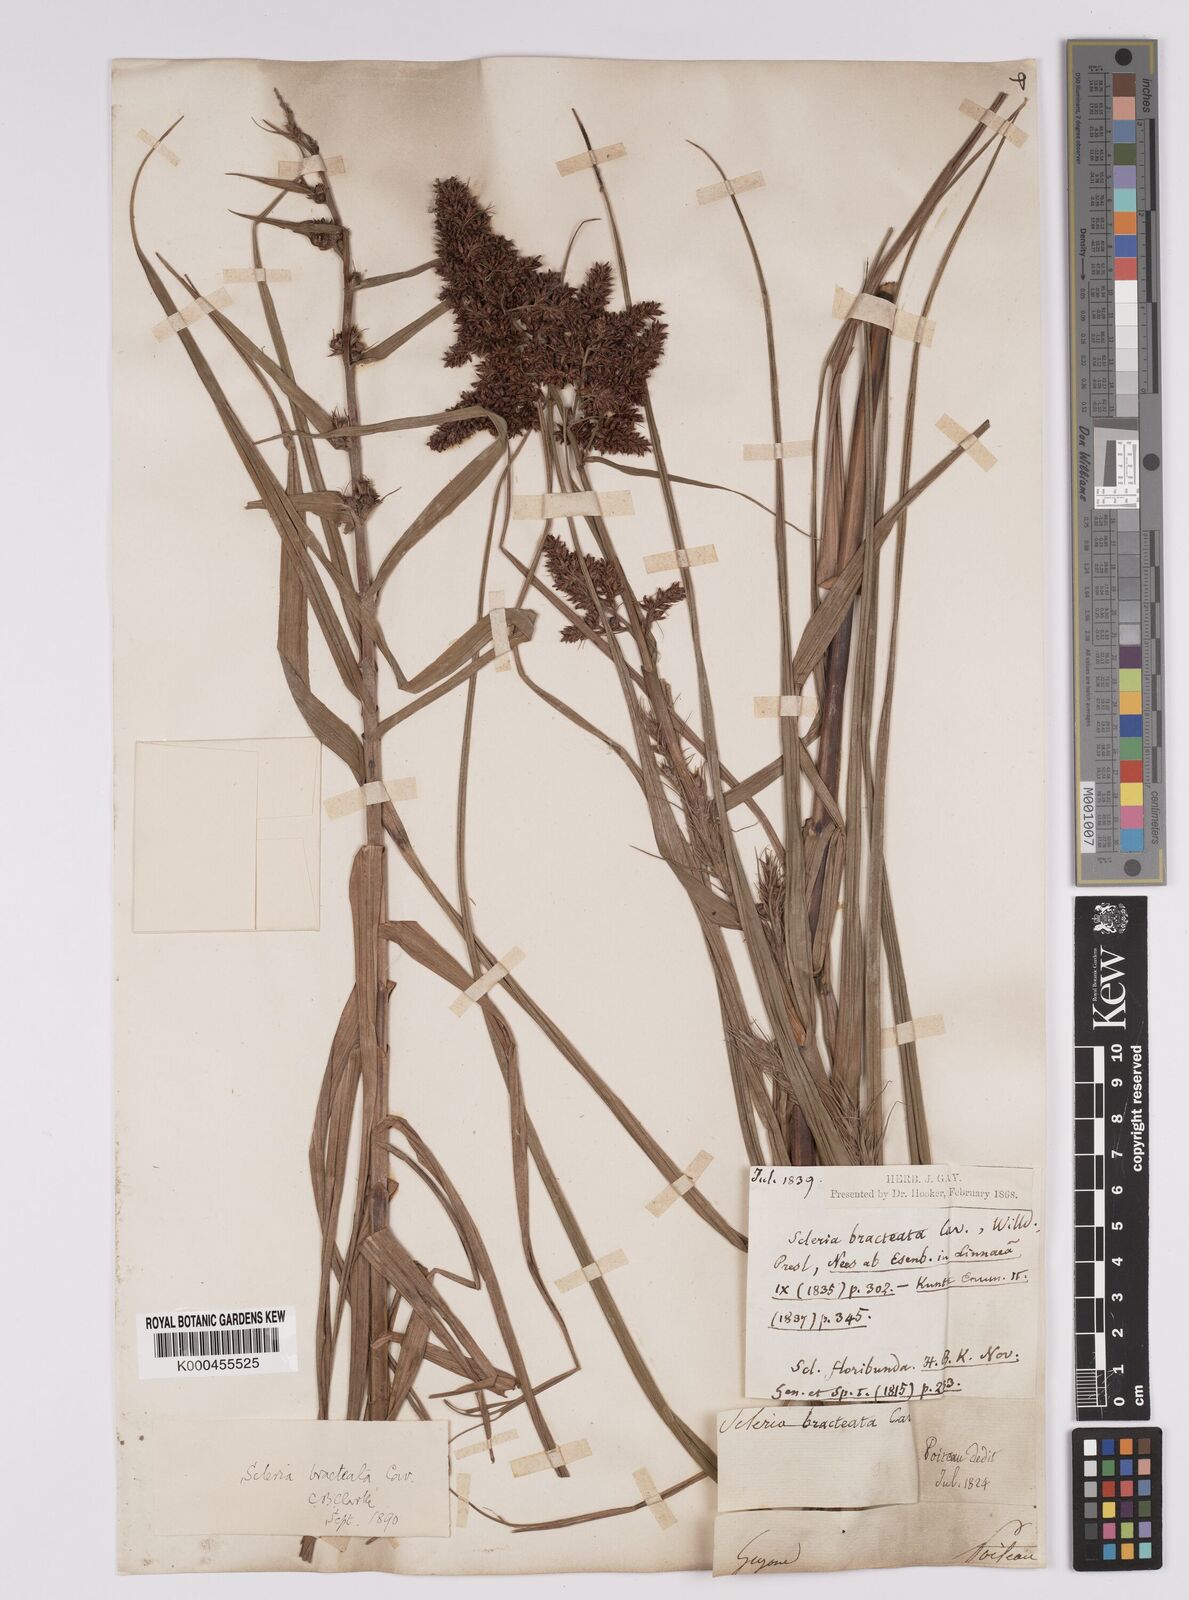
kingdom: Plantae
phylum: Tracheophyta
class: Liliopsida
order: Poales
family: Cyperaceae
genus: Scleria
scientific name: Scleria bracteata
